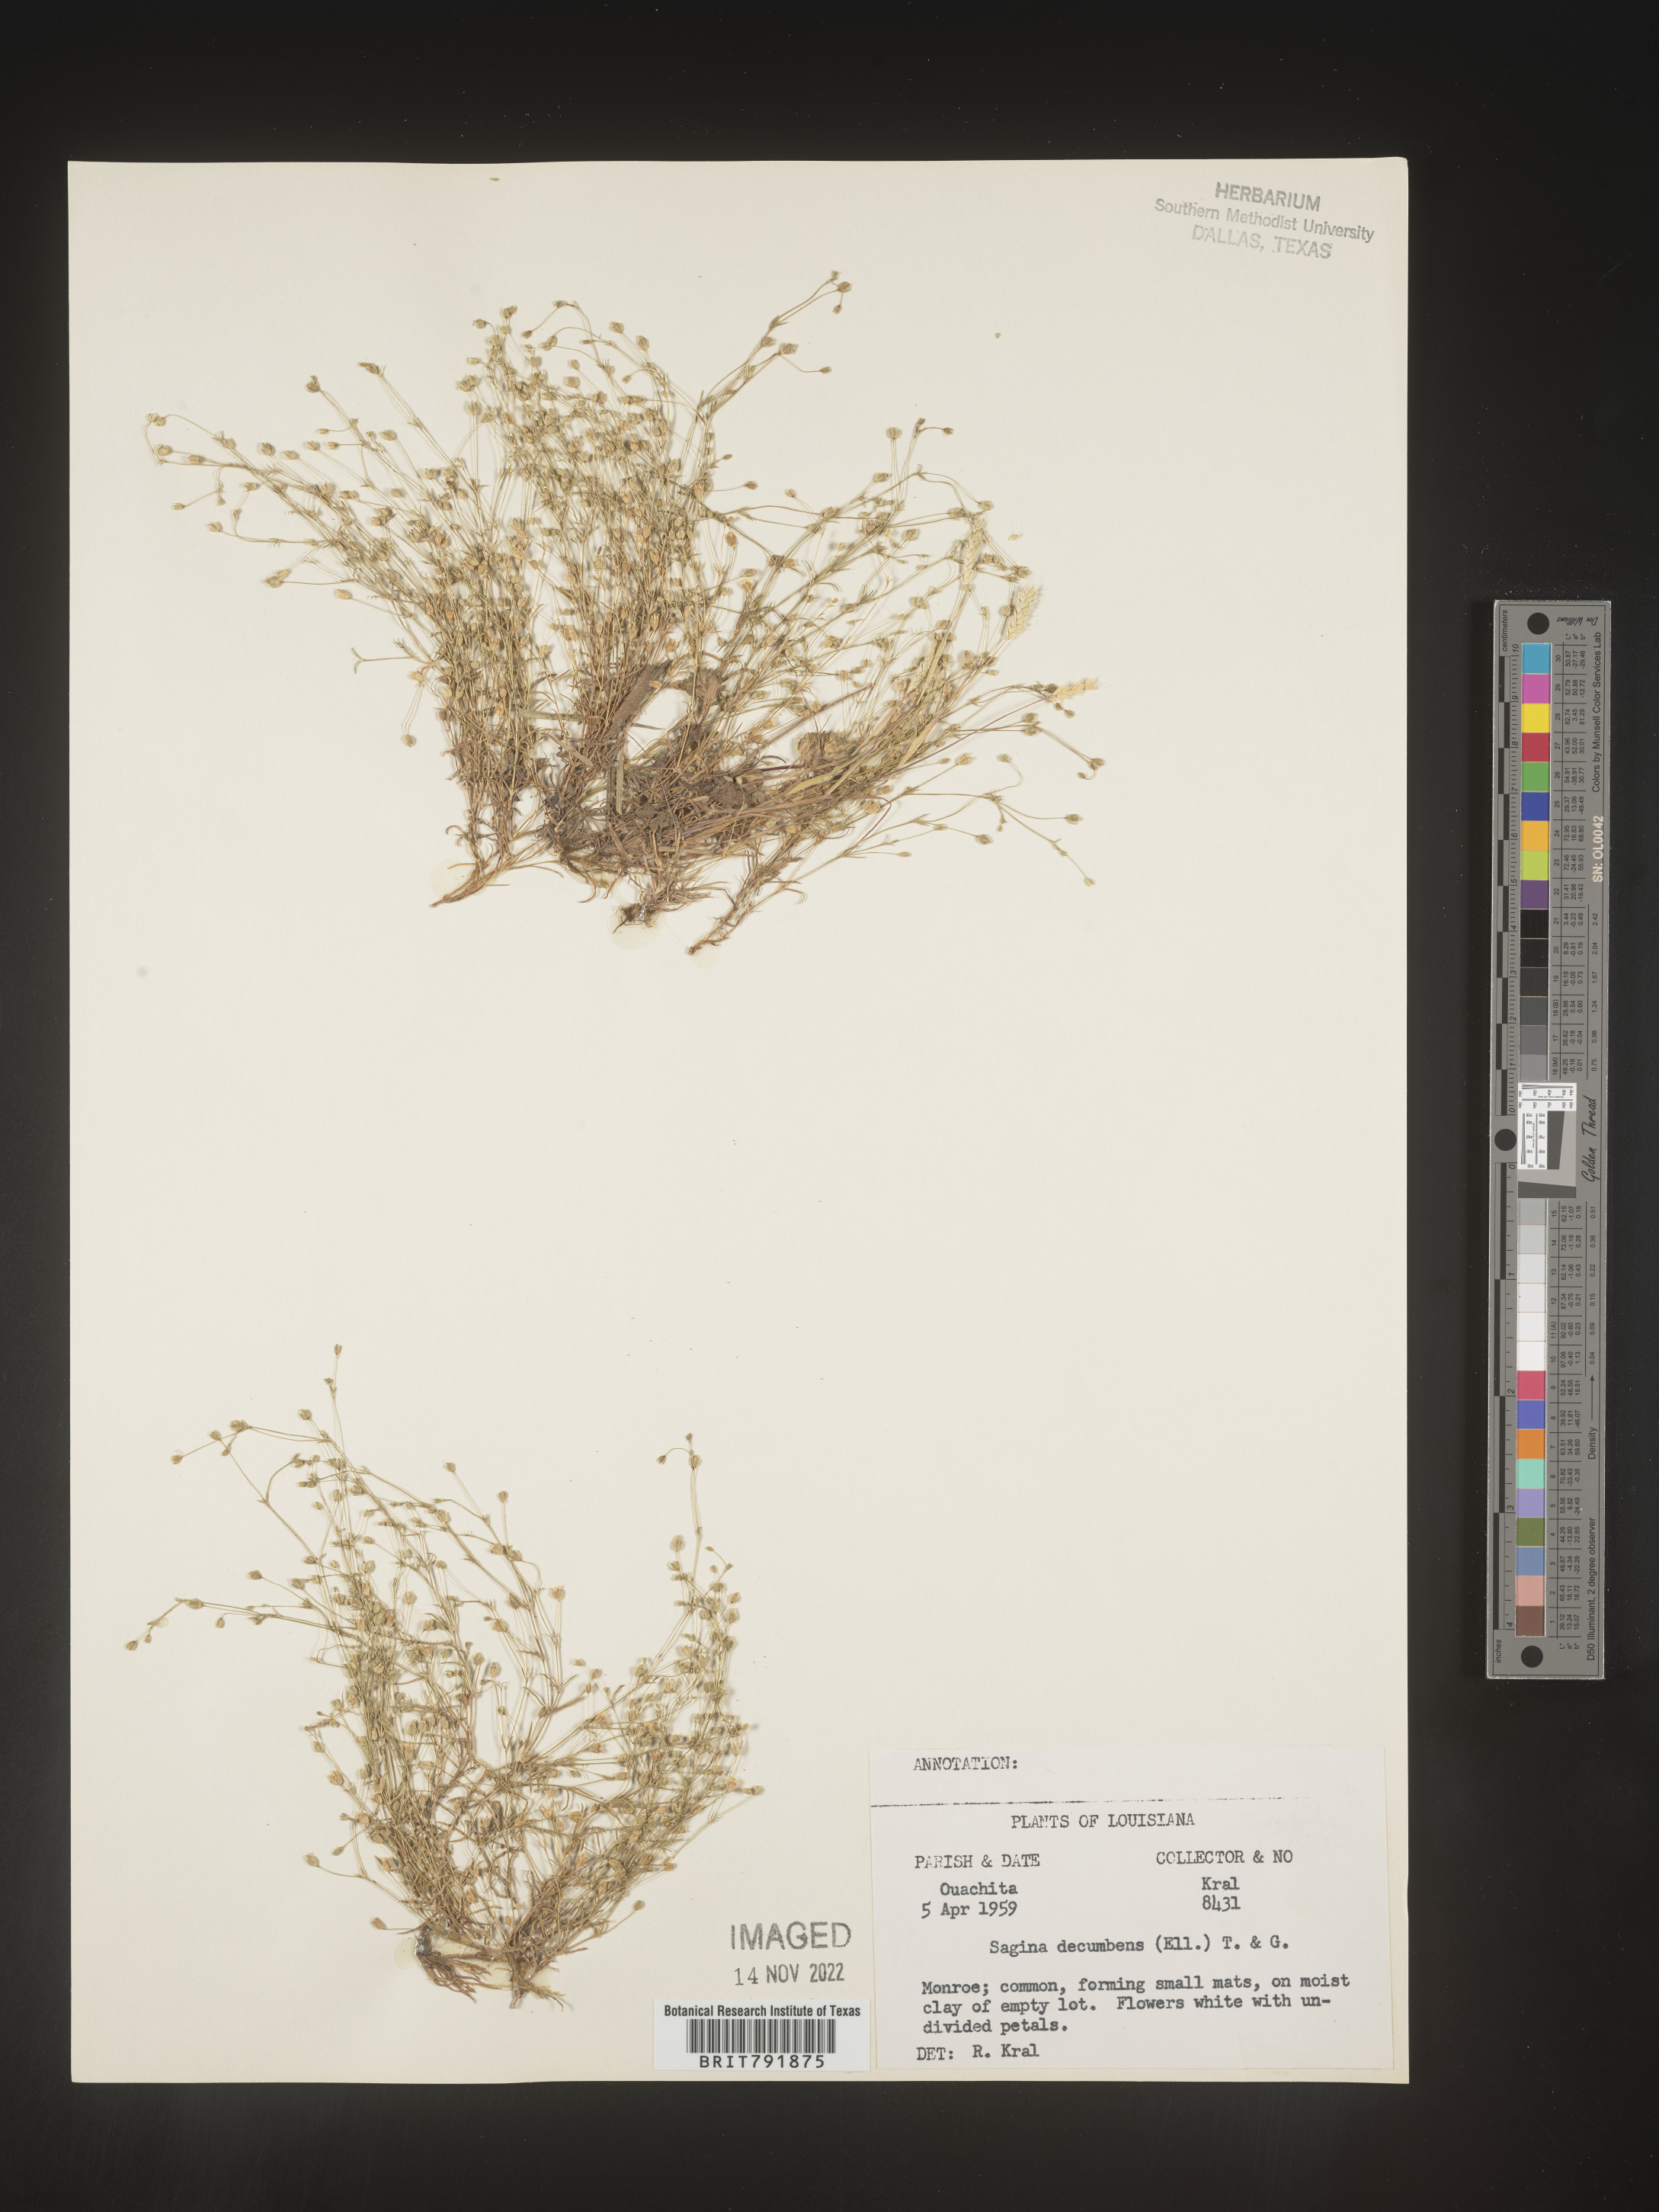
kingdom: Plantae
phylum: Tracheophyta
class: Magnoliopsida
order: Caryophyllales
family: Caryophyllaceae
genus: Sagina
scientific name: Sagina decumbens
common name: Decumbent pearlwort
